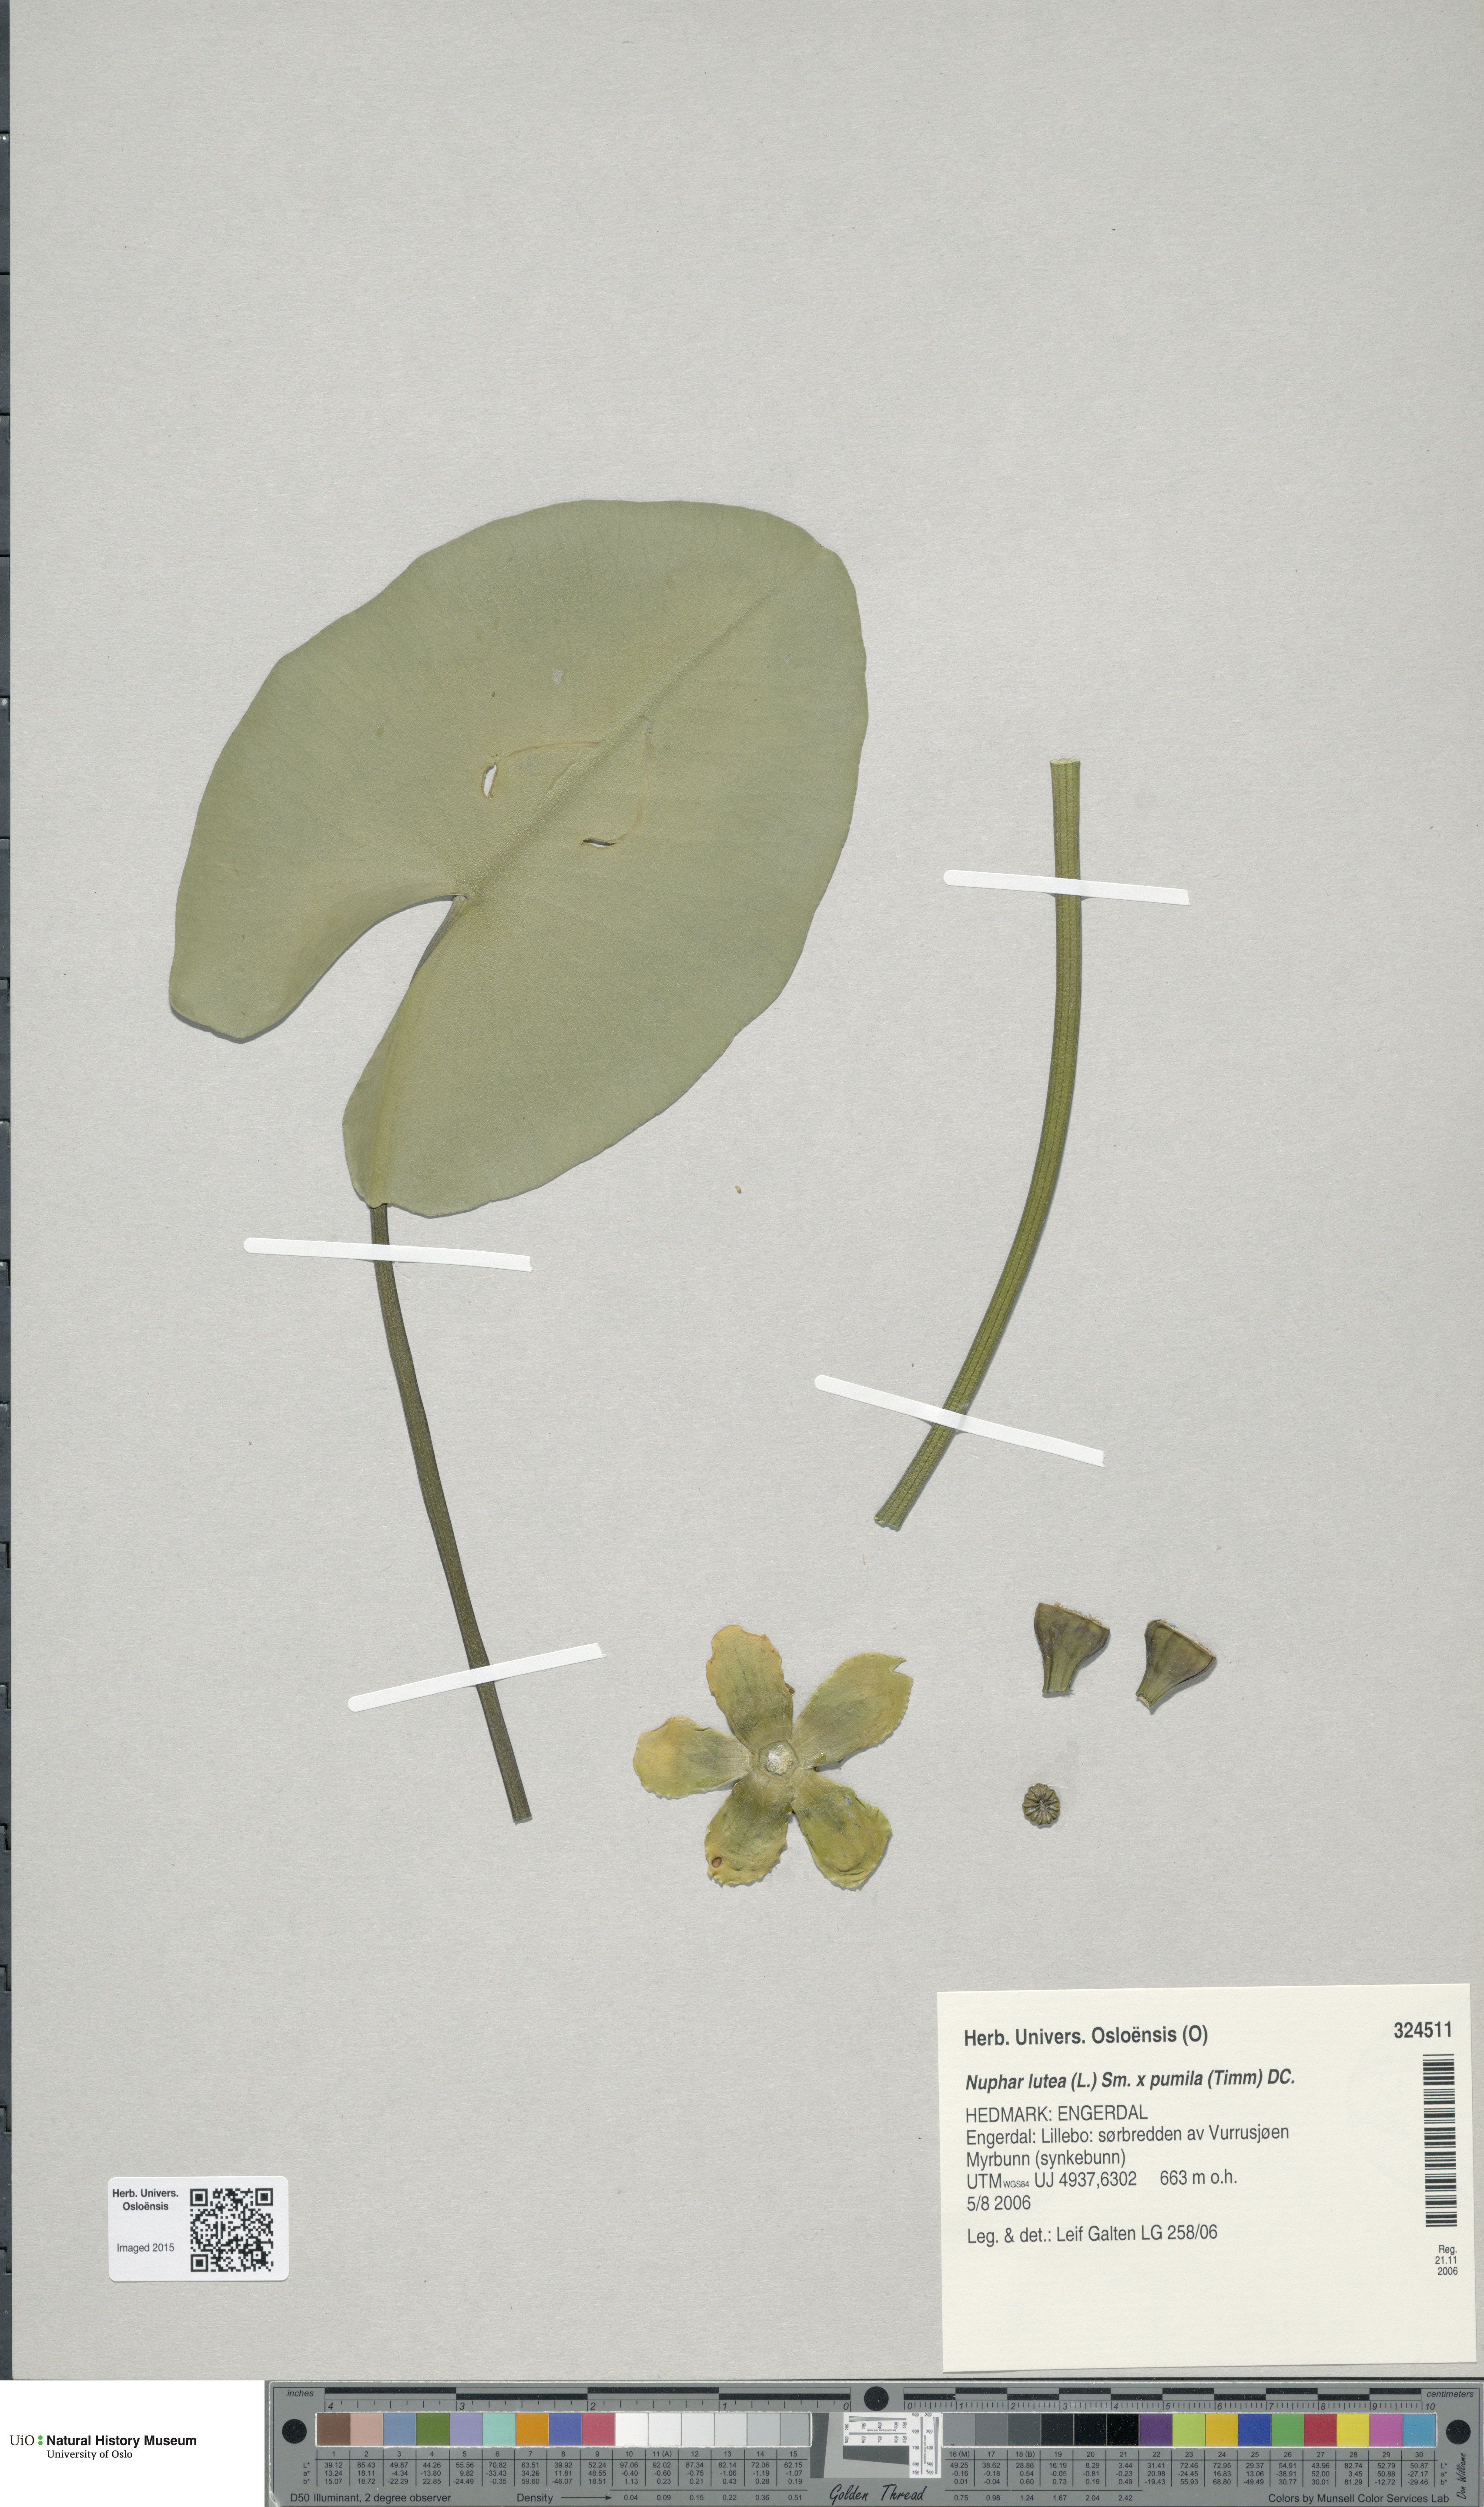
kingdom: Plantae
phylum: Tracheophyta
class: Magnoliopsida
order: Nymphaeales
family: Nymphaeaceae
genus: Nuphar
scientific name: Nuphar
